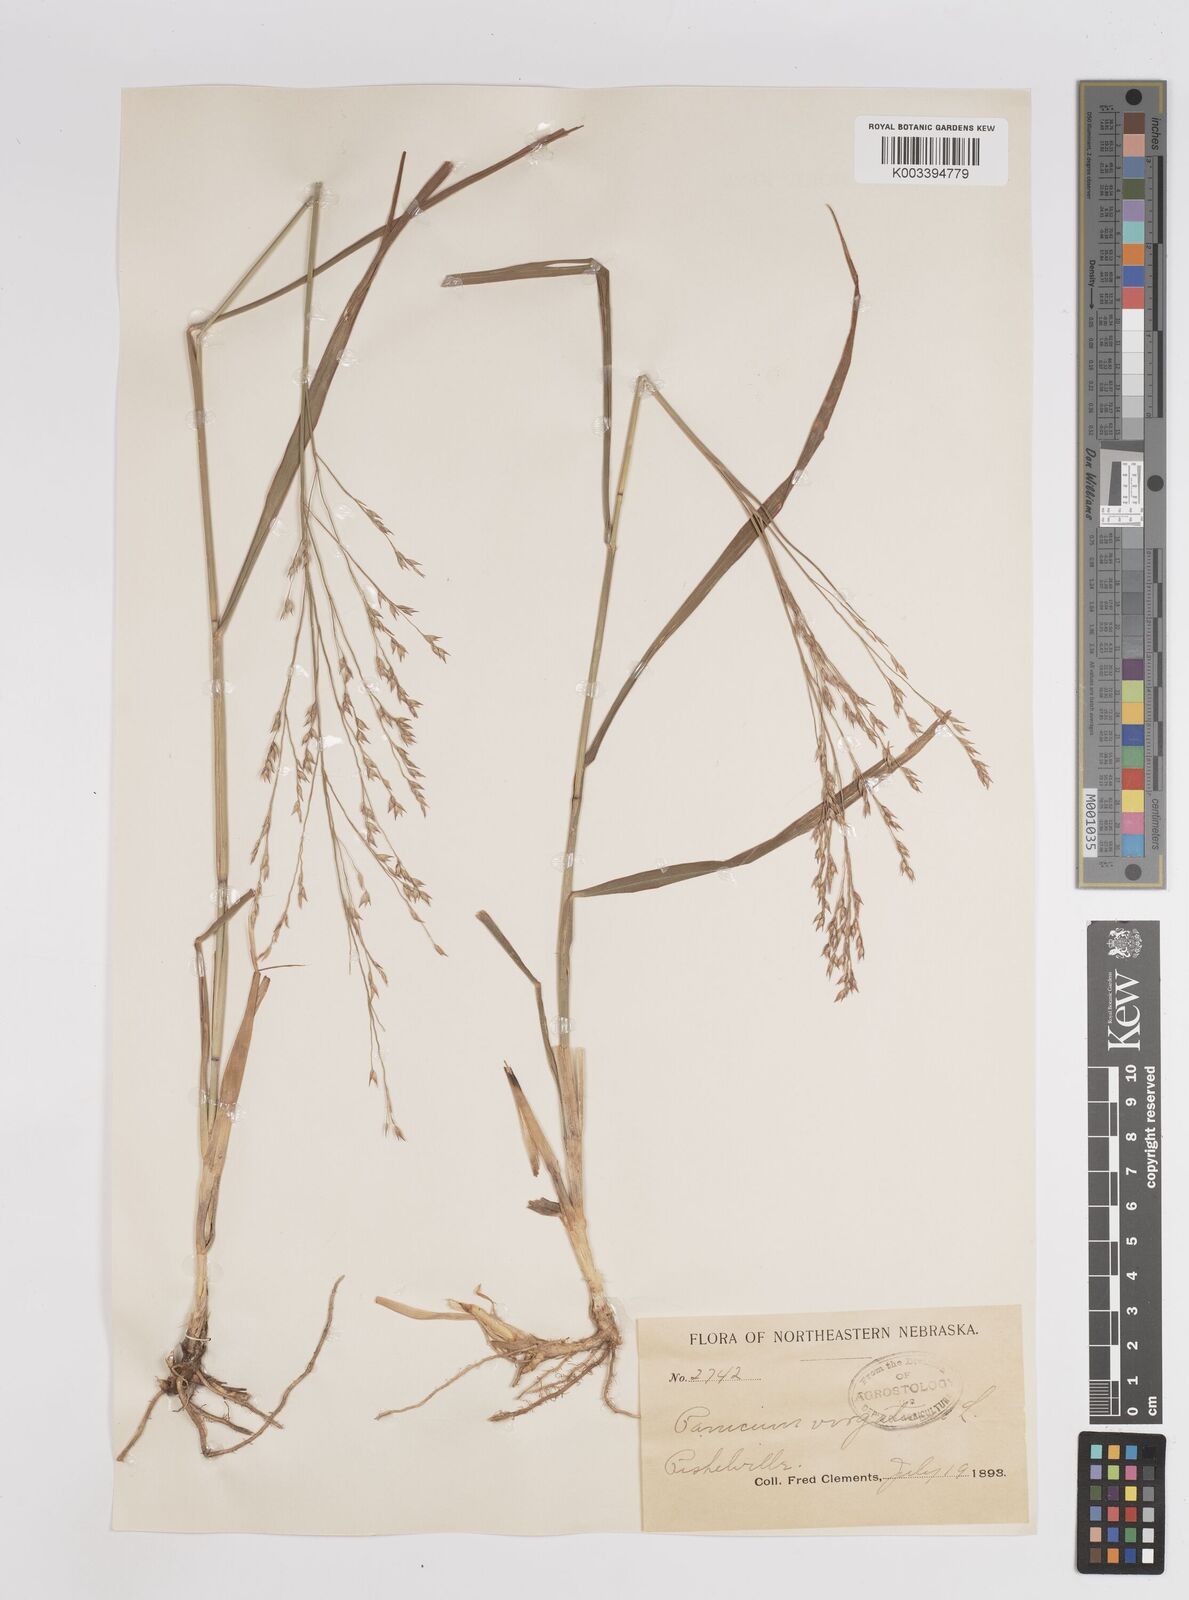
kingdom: Plantae
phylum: Tracheophyta
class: Liliopsida
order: Poales
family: Poaceae
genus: Panicum
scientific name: Panicum virgatum
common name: Switchgrass
